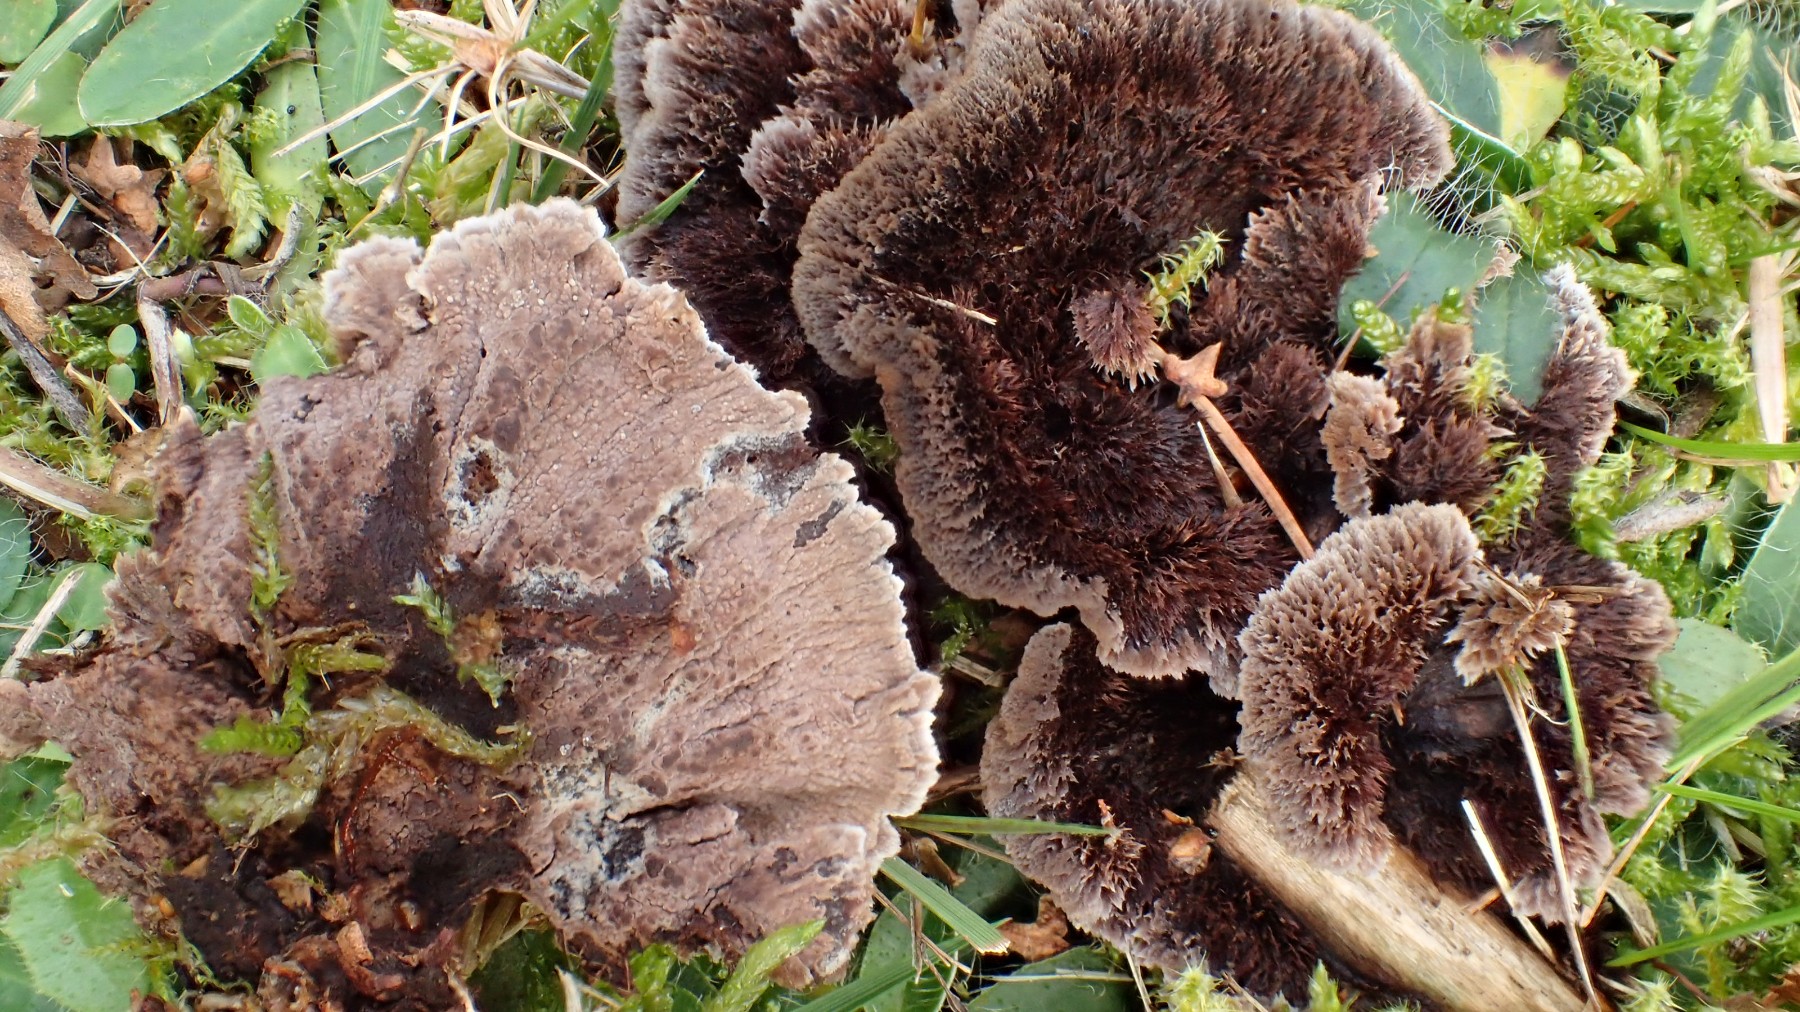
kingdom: Fungi
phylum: Basidiomycota
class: Agaricomycetes
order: Thelephorales
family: Thelephoraceae
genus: Thelephora
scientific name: Thelephora terrestris
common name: fliget frynsesvamp
